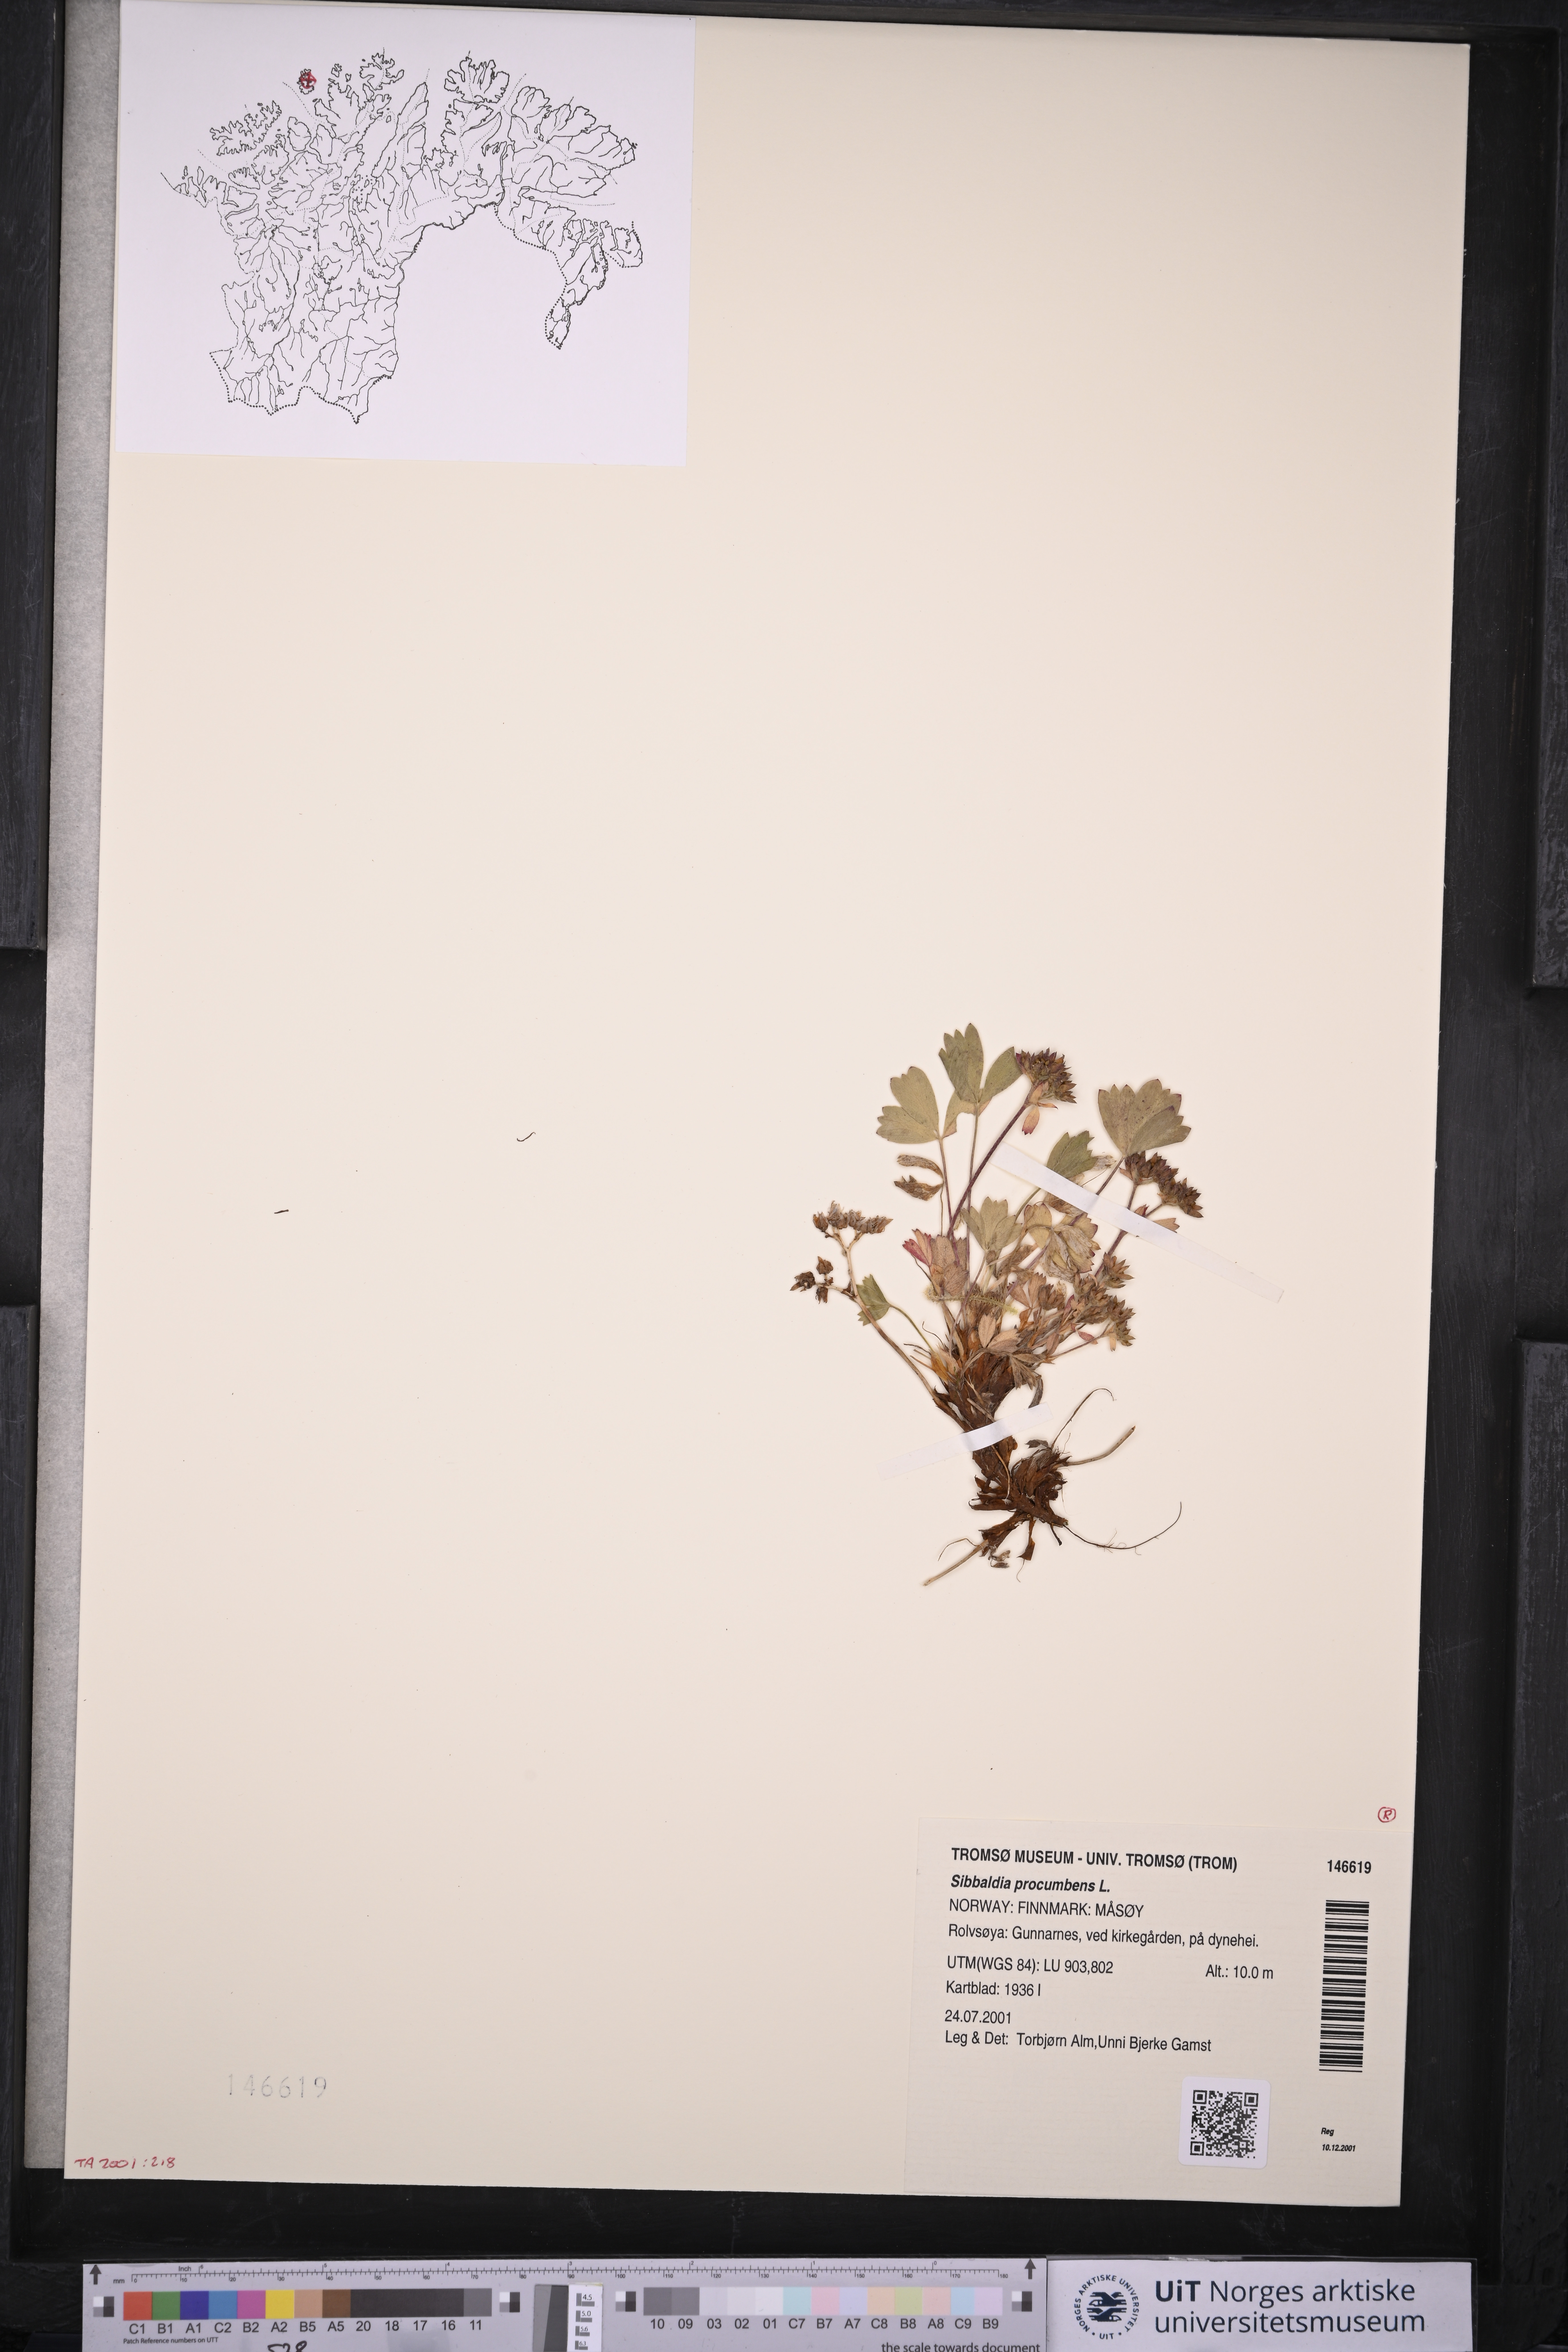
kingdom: Plantae
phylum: Tracheophyta
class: Magnoliopsida
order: Rosales
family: Rosaceae
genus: Sibbaldia
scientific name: Sibbaldia procumbens
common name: Creeping sibbaldia
